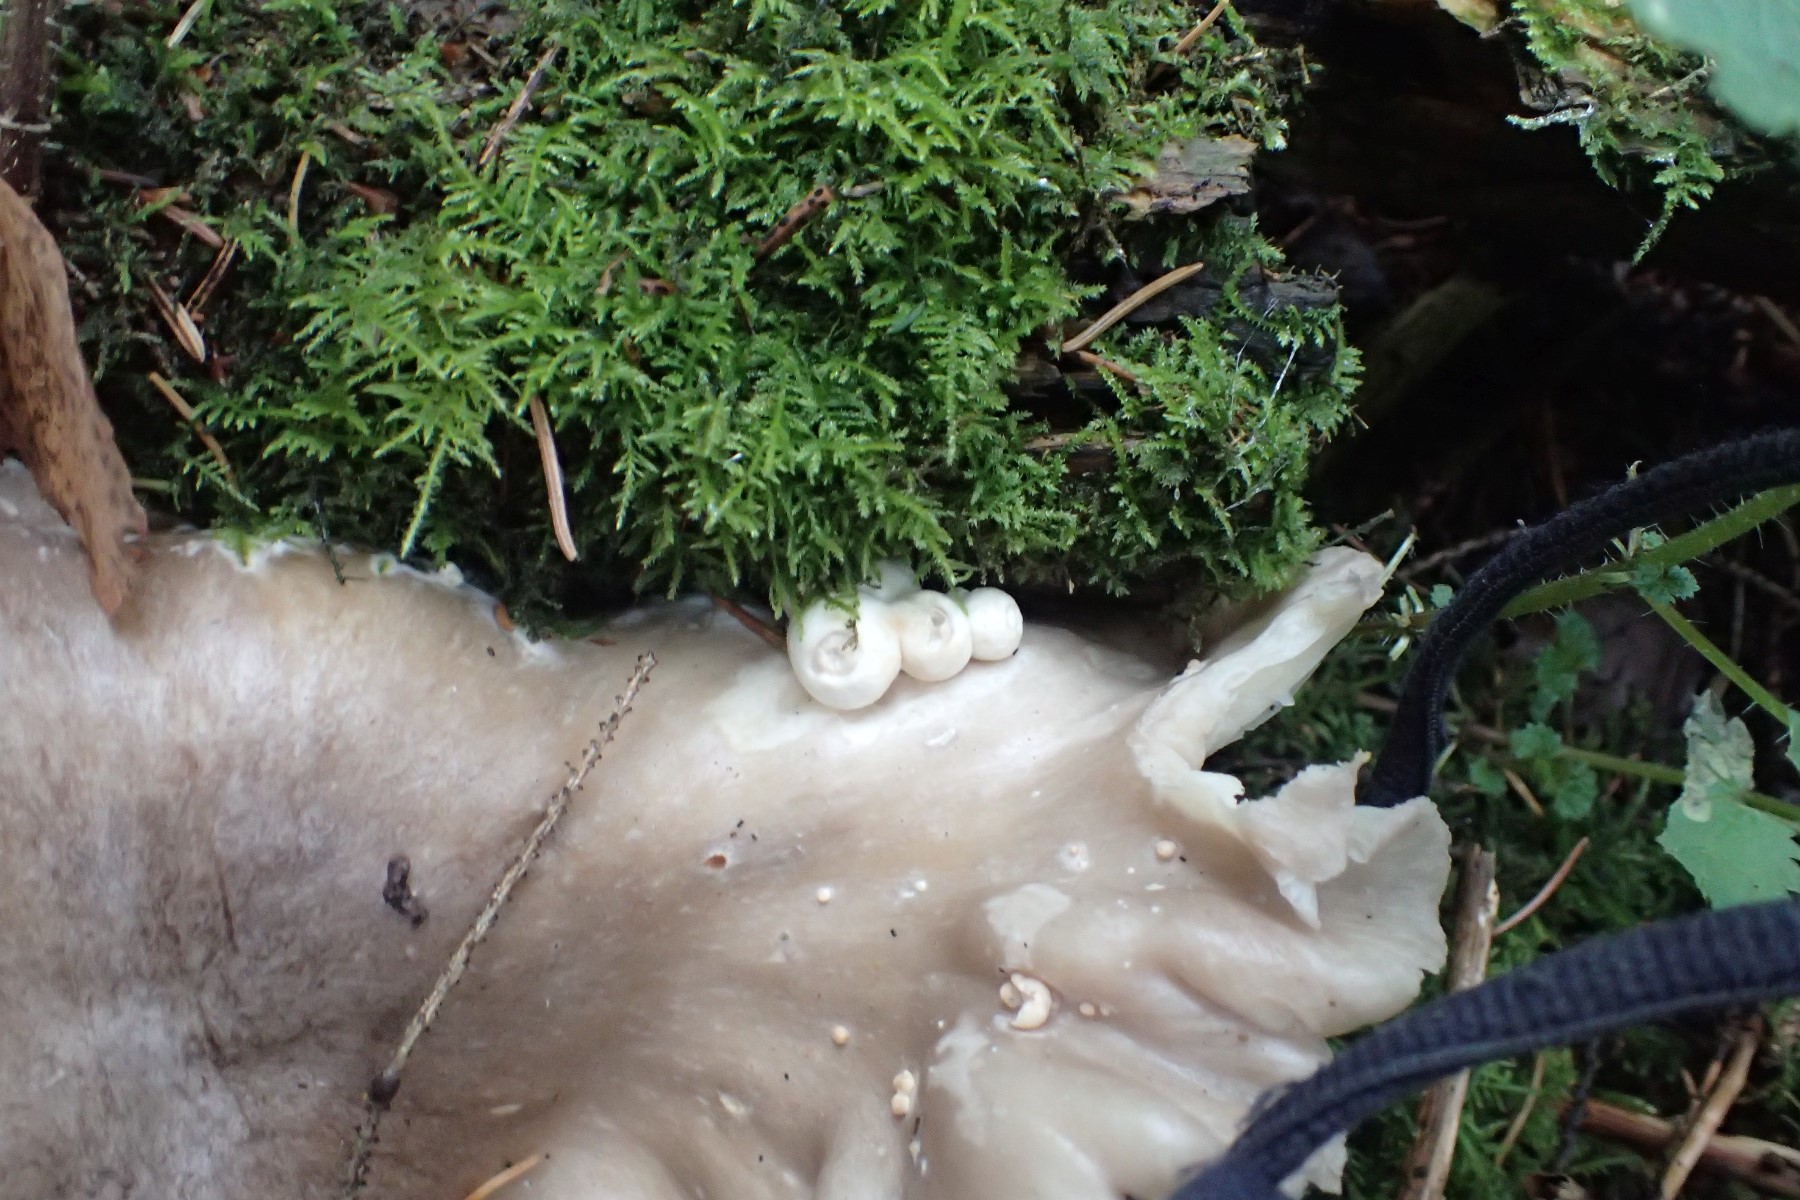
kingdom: Fungi
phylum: Basidiomycota
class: Agaricomycetes
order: Agaricales
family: Pluteaceae
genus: Volvariella
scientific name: Volvariella surrecta
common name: snyltende posesvamp
